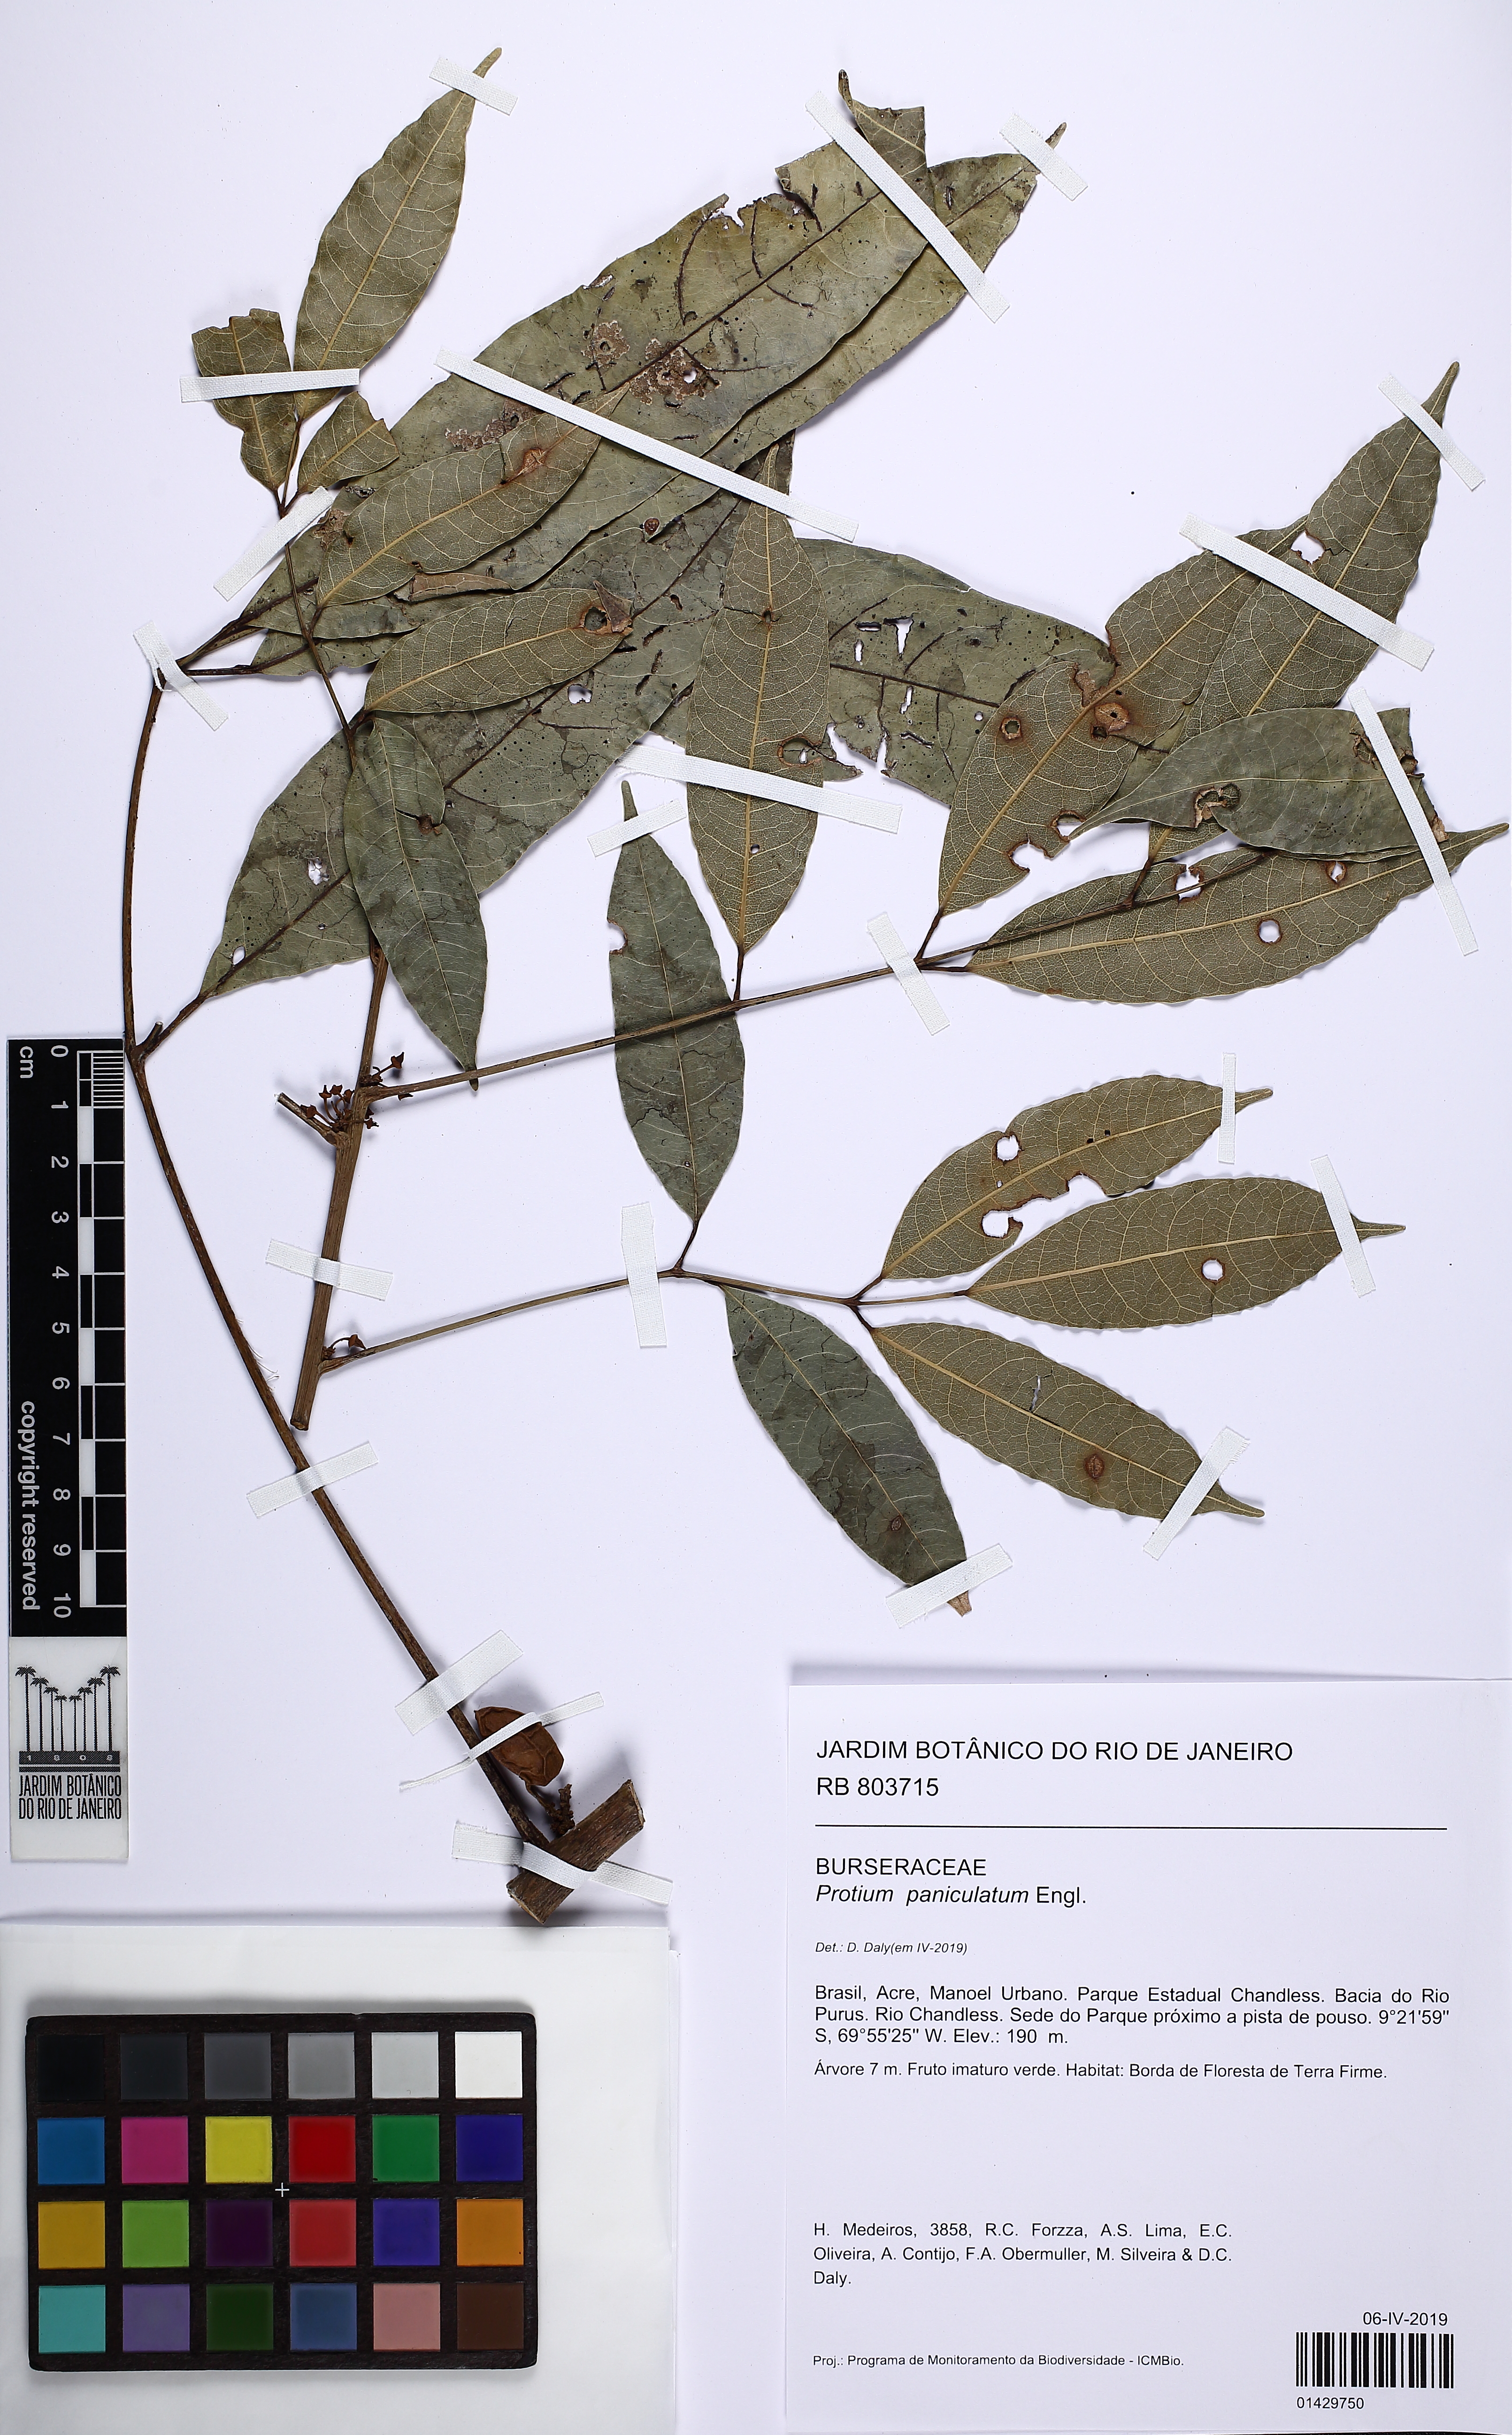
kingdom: Plantae
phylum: Tracheophyta
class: Magnoliopsida
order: Sapindales
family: Burseraceae
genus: Protium
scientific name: Protium paniculatum
